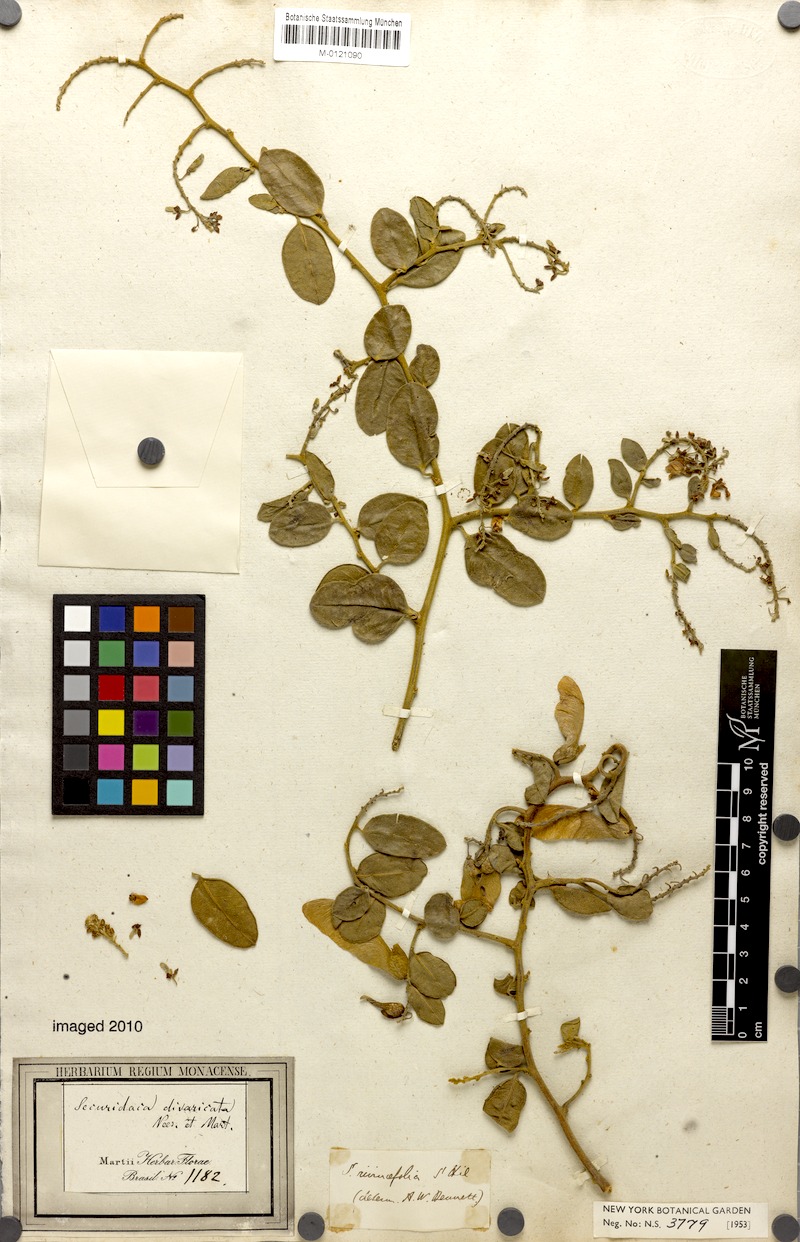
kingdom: Plantae
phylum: Tracheophyta
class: Magnoliopsida
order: Fabales
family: Polygalaceae
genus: Securidaca
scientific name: Securidaca rivinifolia
